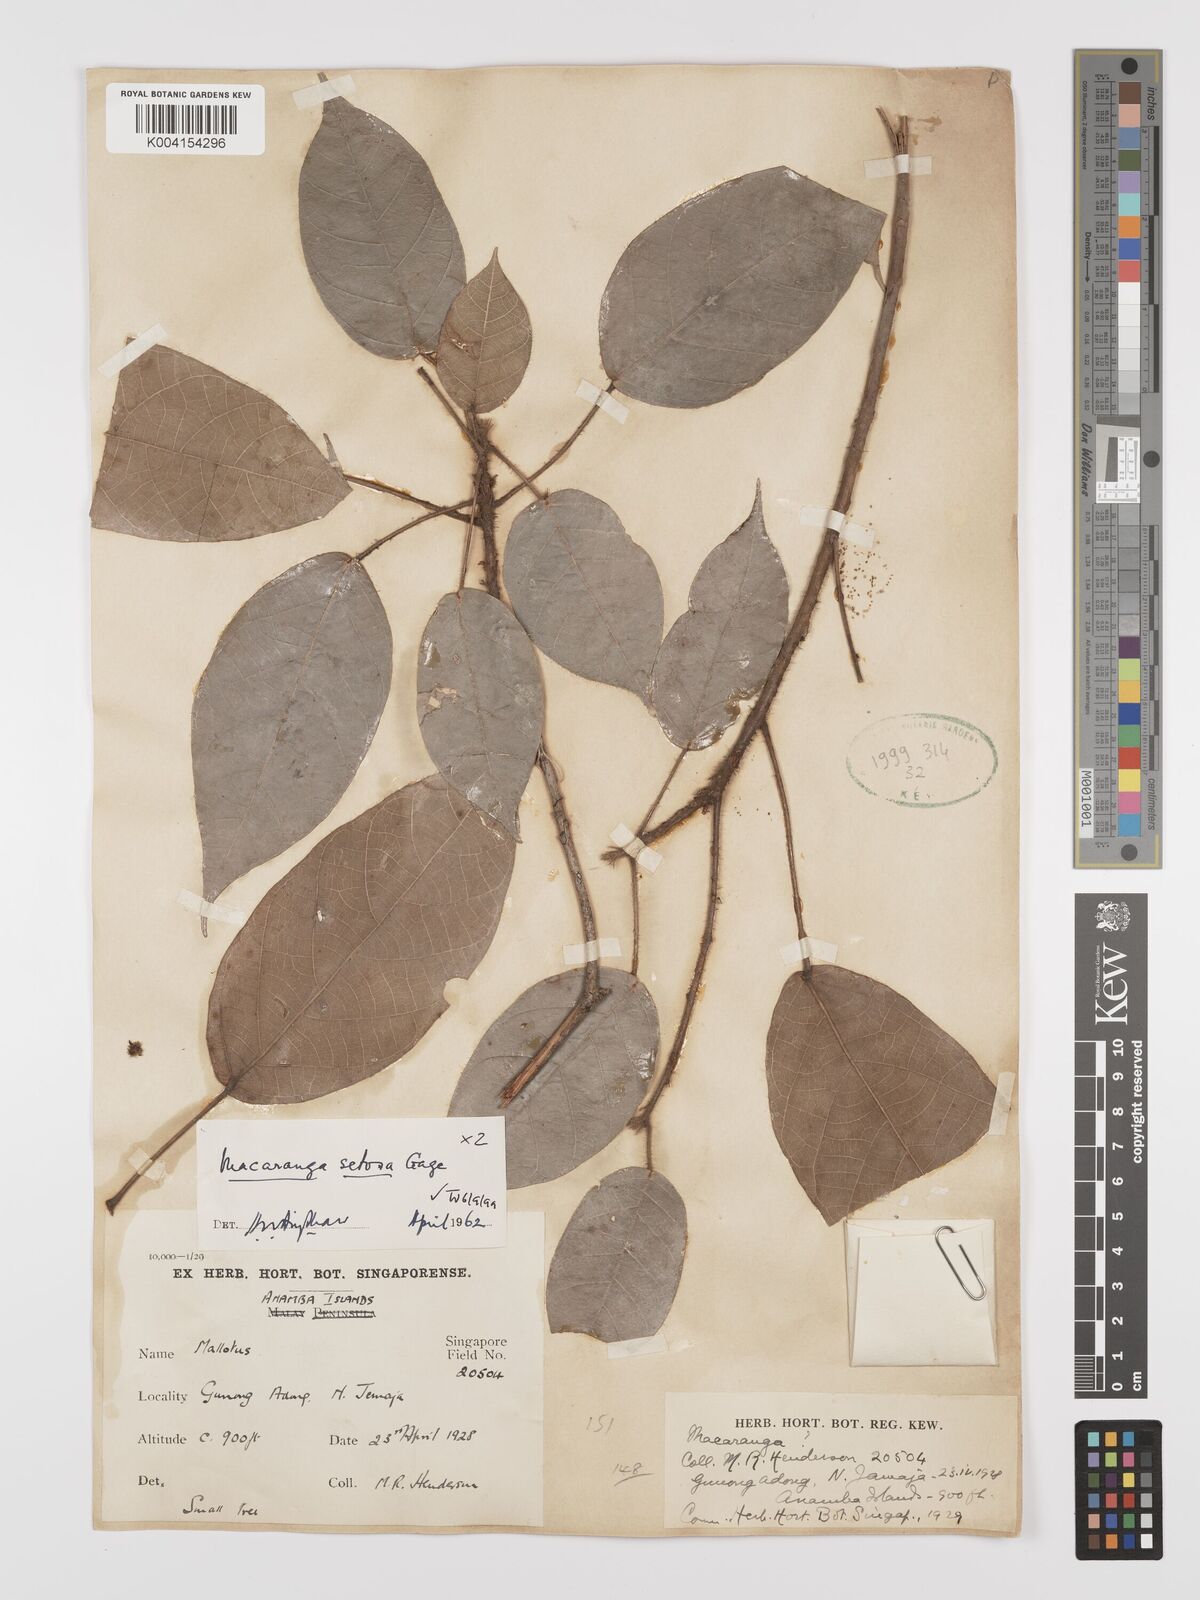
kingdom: Plantae
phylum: Tracheophyta
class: Magnoliopsida
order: Malpighiales
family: Euphorbiaceae
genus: Macaranga
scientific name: Macaranga setosa
